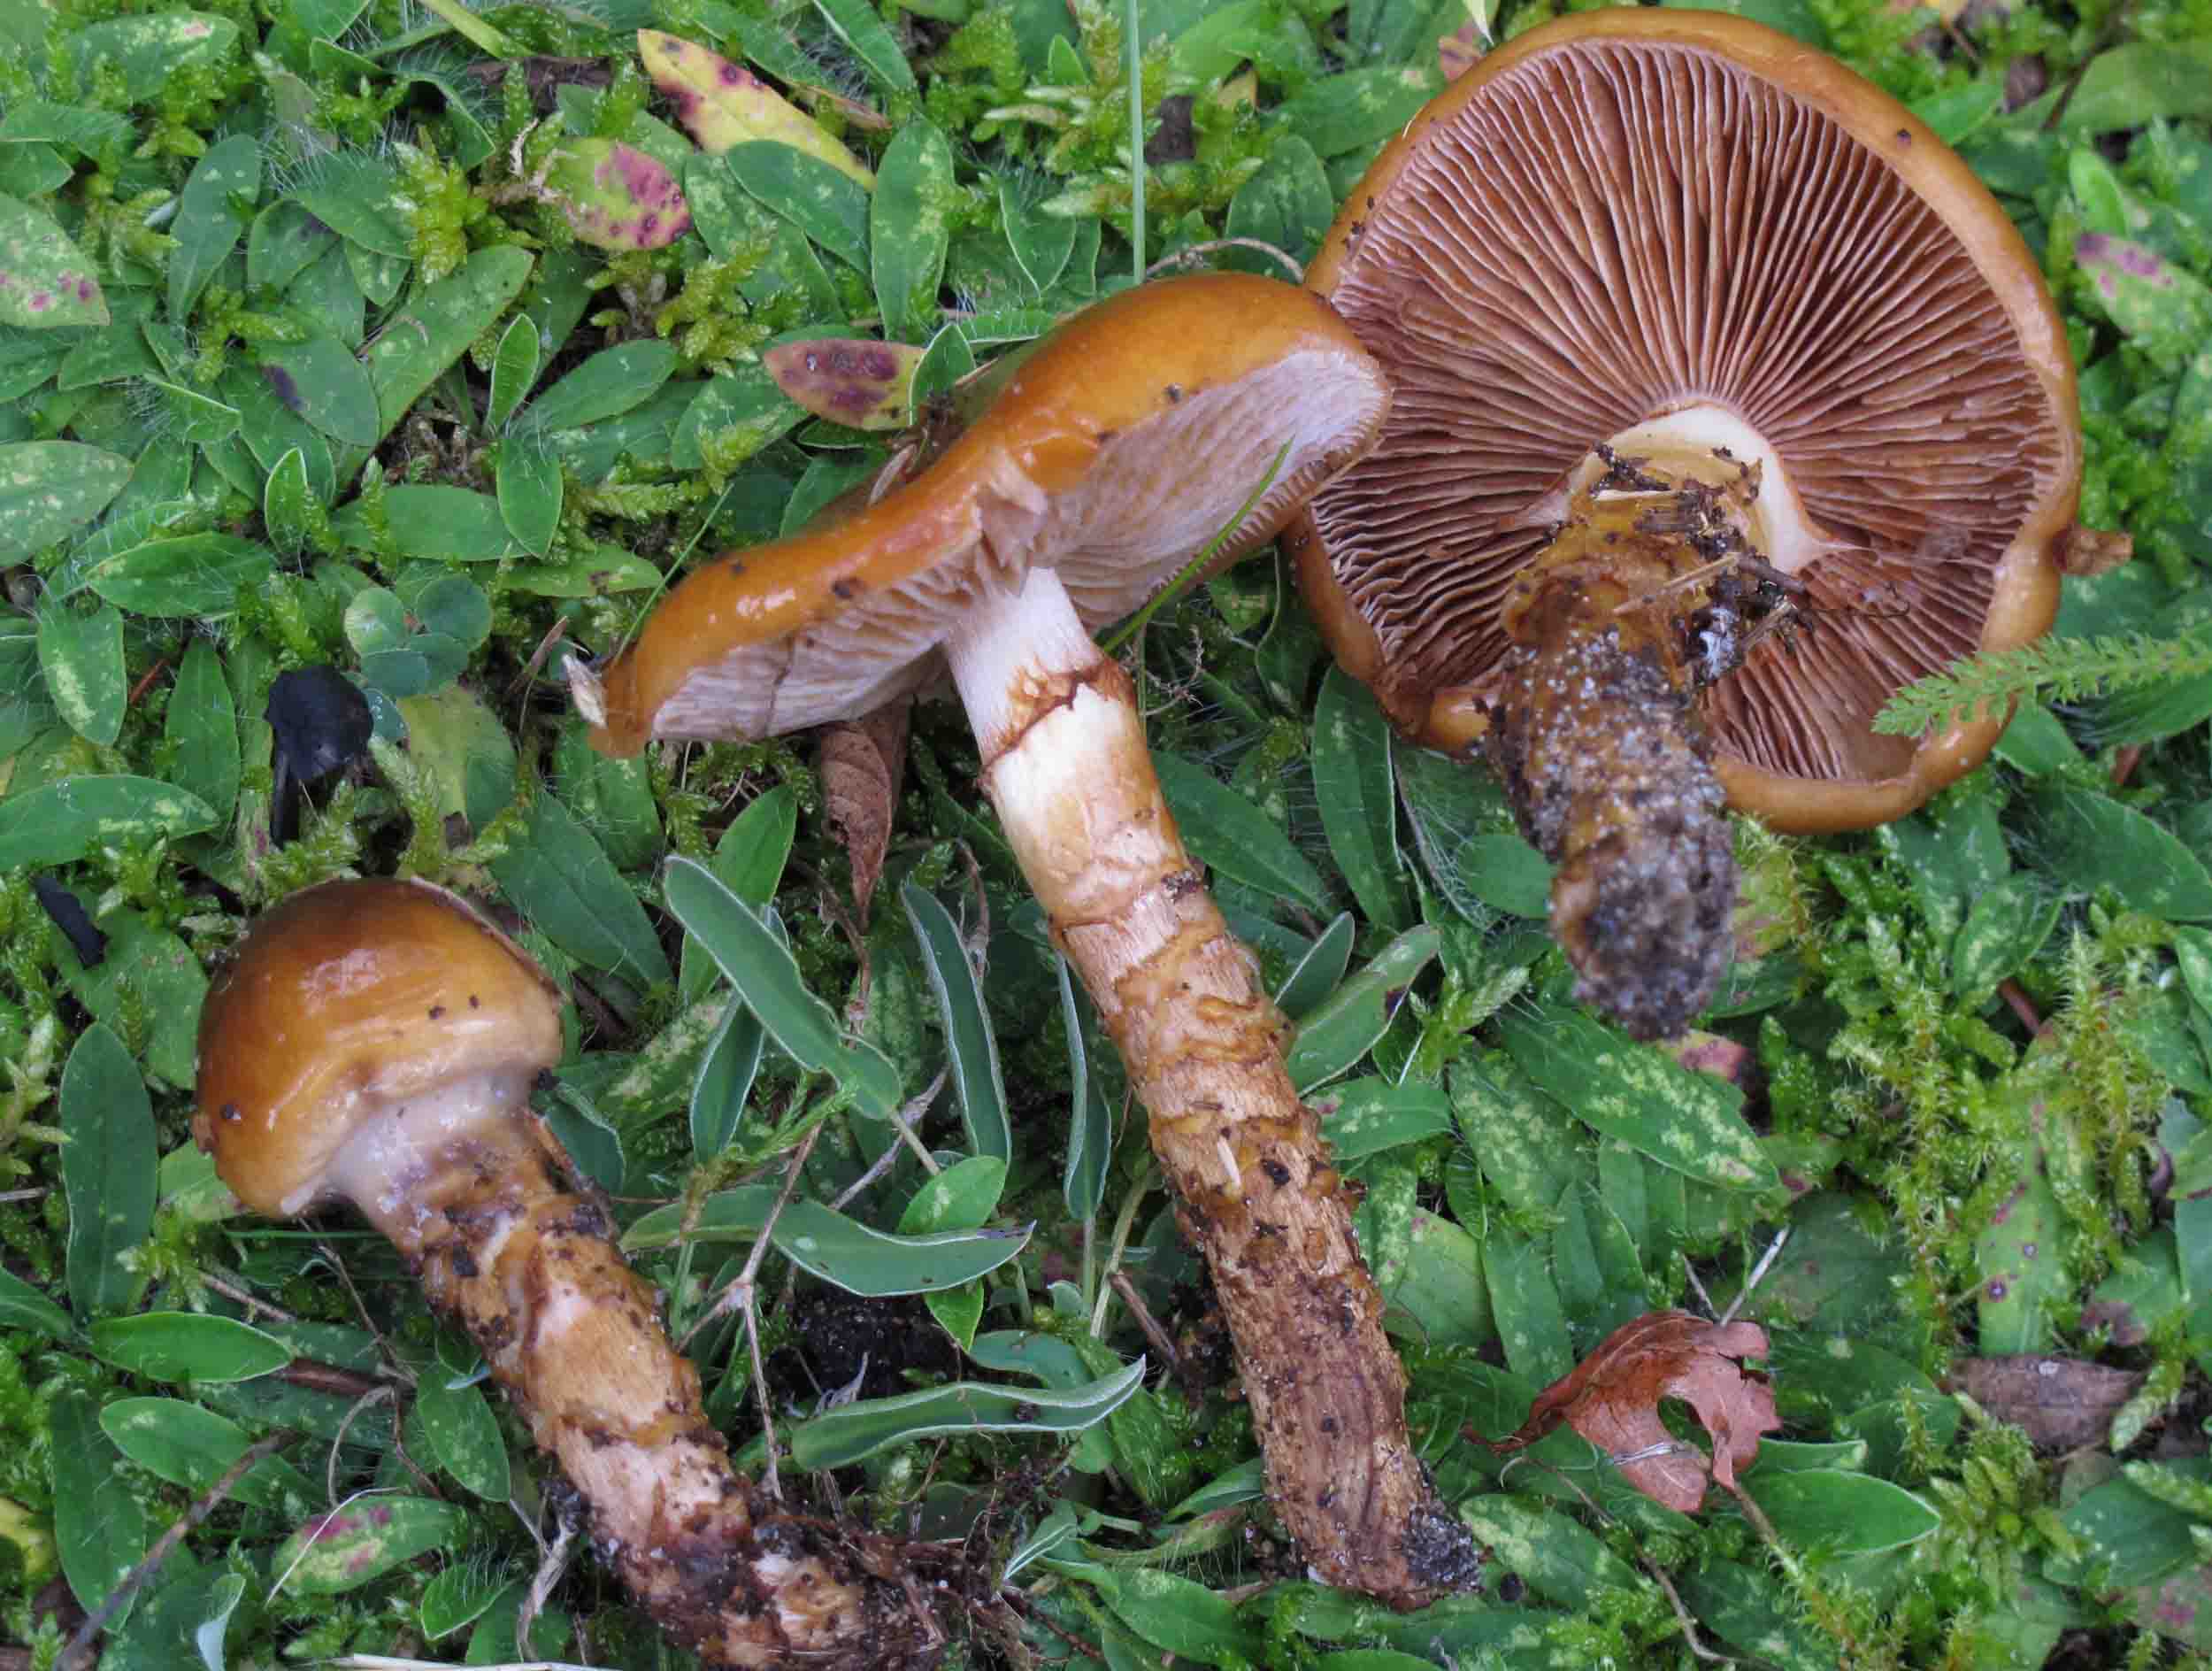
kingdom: Fungi
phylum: Basidiomycota
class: Agaricomycetes
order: Agaricales
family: Cortinariaceae
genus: Cortinarius
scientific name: Cortinarius trivialis
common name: brunslimet slørhat
